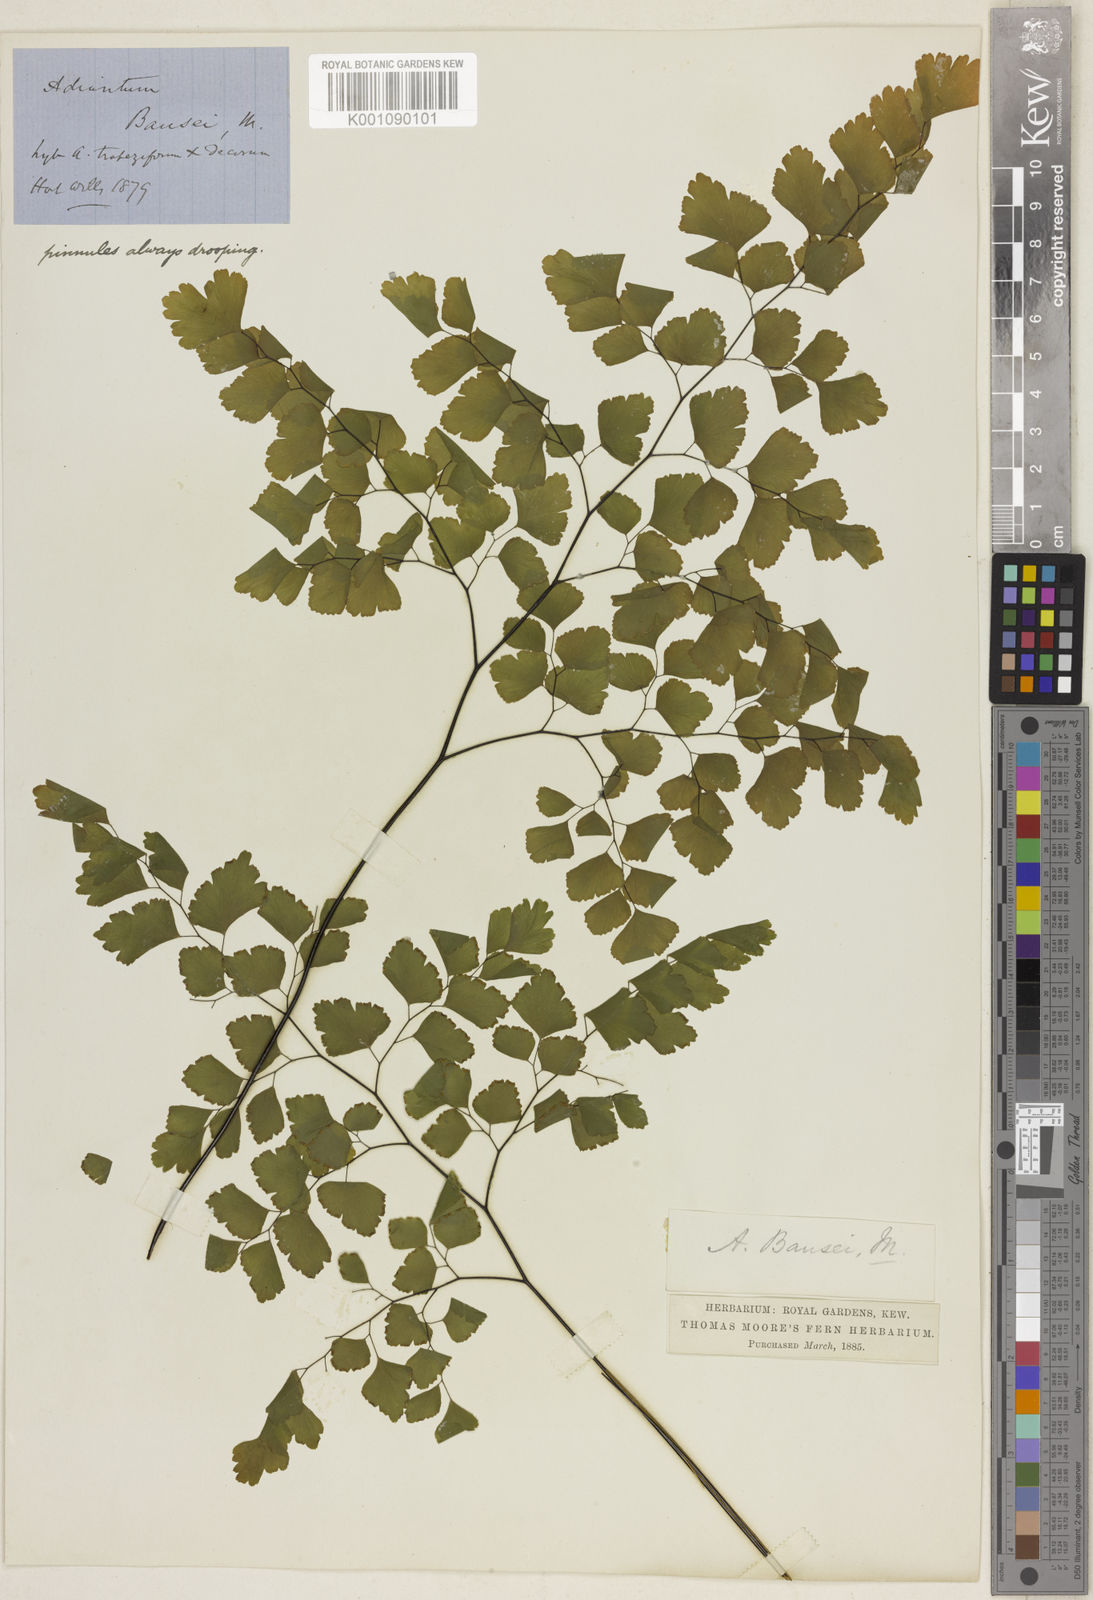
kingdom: Plantae
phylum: Tracheophyta
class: Polypodiopsida
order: Polypodiales
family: Pteridaceae
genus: Adiantum
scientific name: Adiantum tenerum
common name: Fan maidenhair
